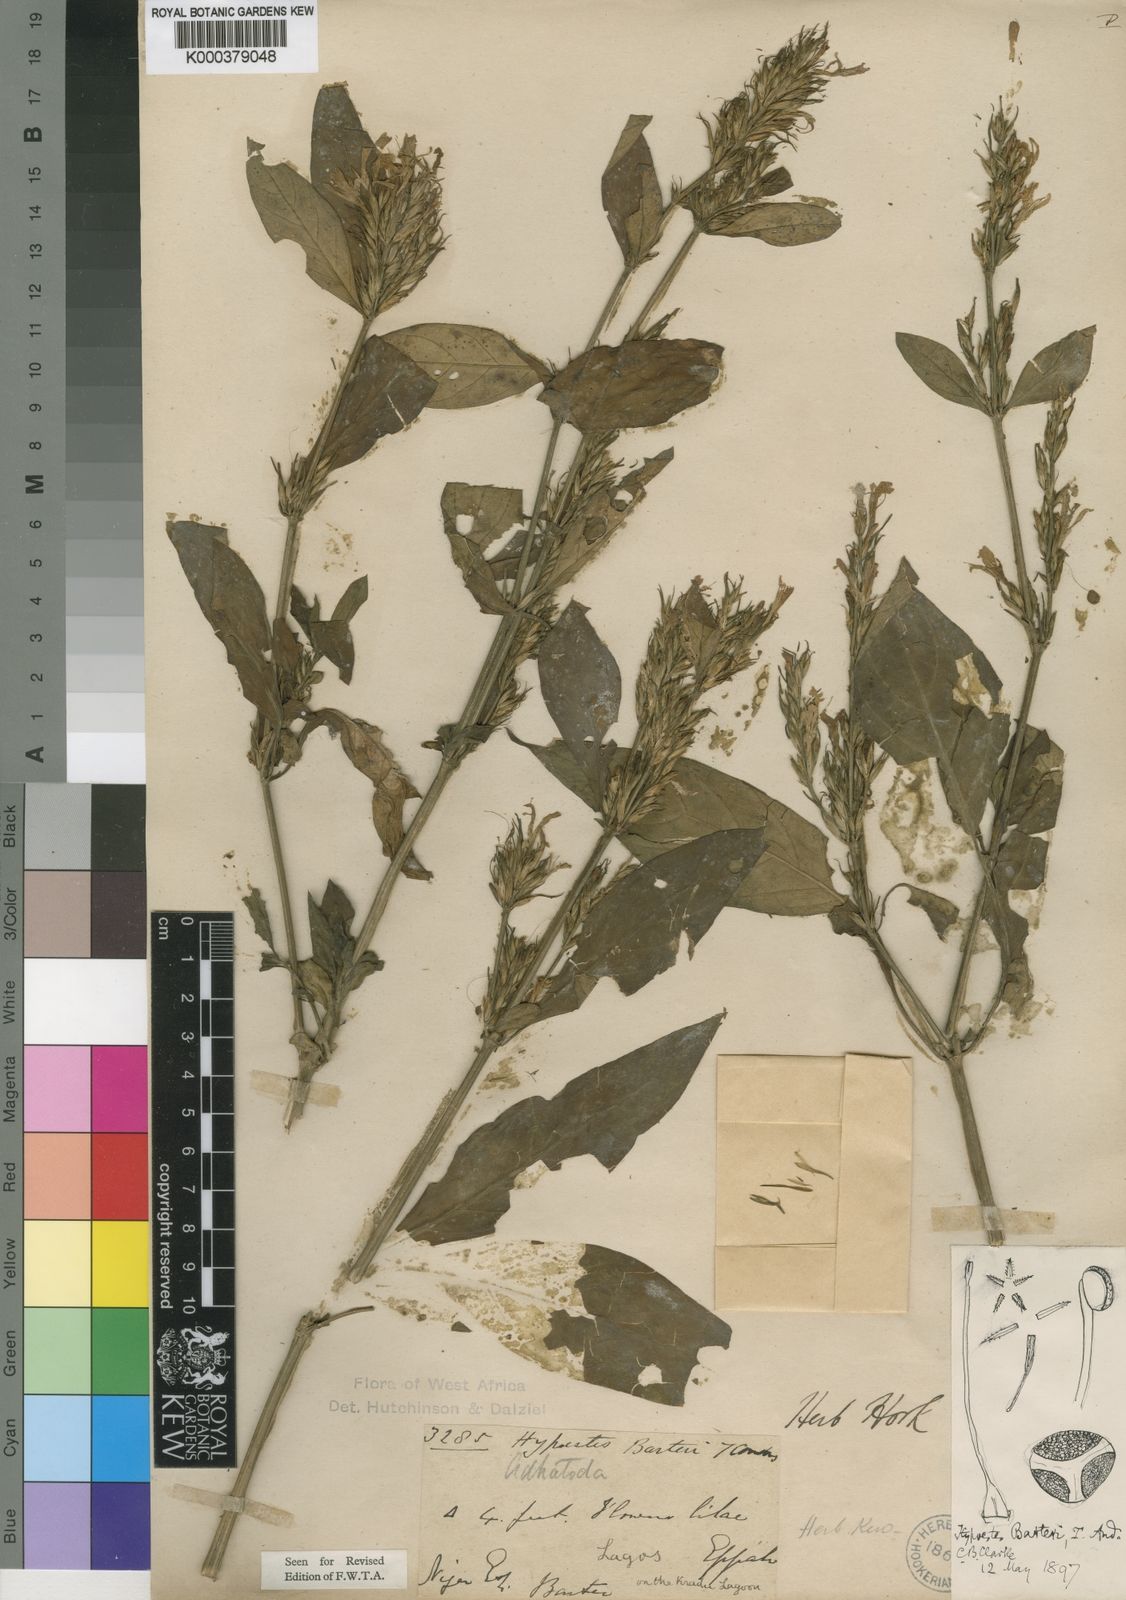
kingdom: Plantae
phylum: Tracheophyta
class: Magnoliopsida
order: Lamiales
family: Acanthaceae
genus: Hypoestes
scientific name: Hypoestes rosea
